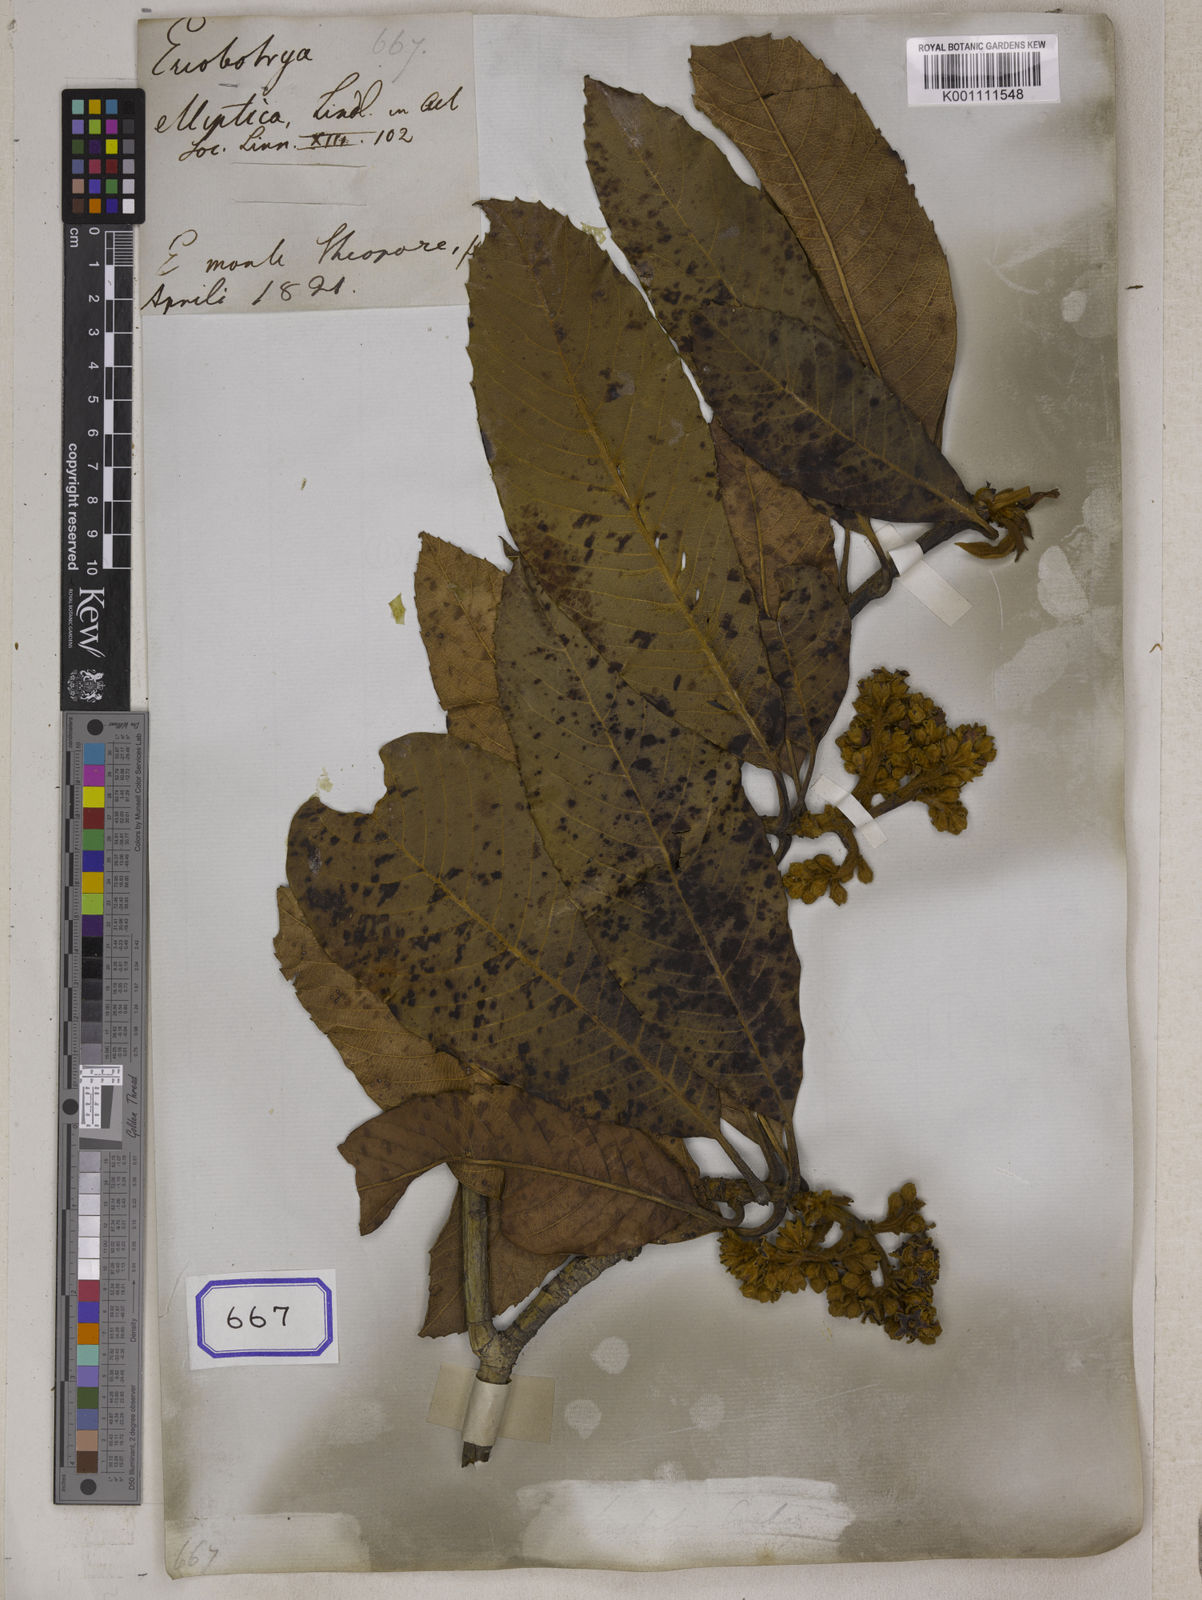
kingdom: Plantae
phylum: Tracheophyta
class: Magnoliopsida
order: Rosales
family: Rosaceae
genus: Rhaphiolepis
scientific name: Rhaphiolepis elliptica
